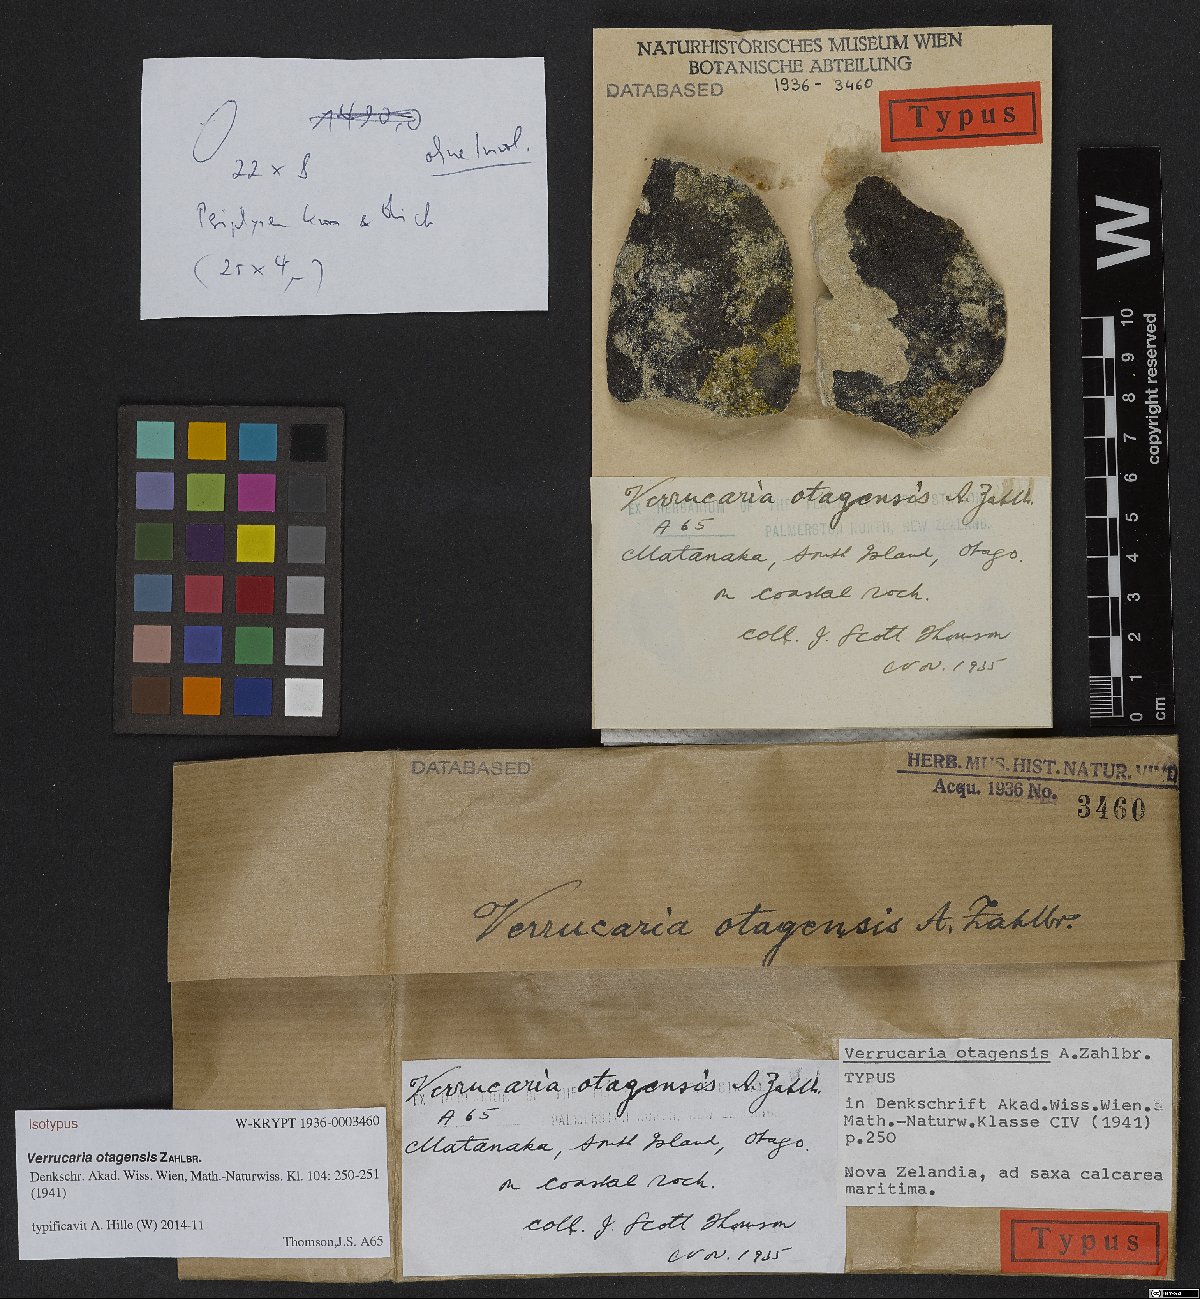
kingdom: Fungi
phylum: Ascomycota
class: Eurotiomycetes
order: Verrucariales
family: Verrucariaceae
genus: Verrucaria
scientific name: Verrucaria
